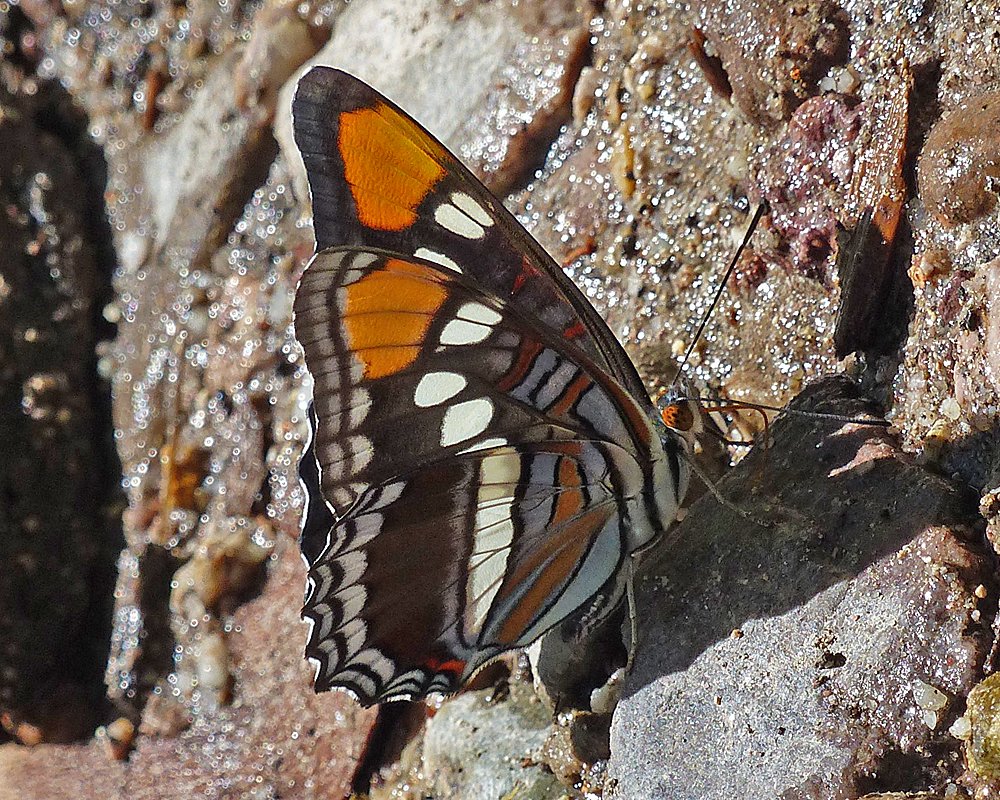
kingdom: Animalia
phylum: Arthropoda
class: Insecta
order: Lepidoptera
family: Nymphalidae
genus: Limenitis
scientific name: Limenitis bredowii
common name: Arizona Sister
